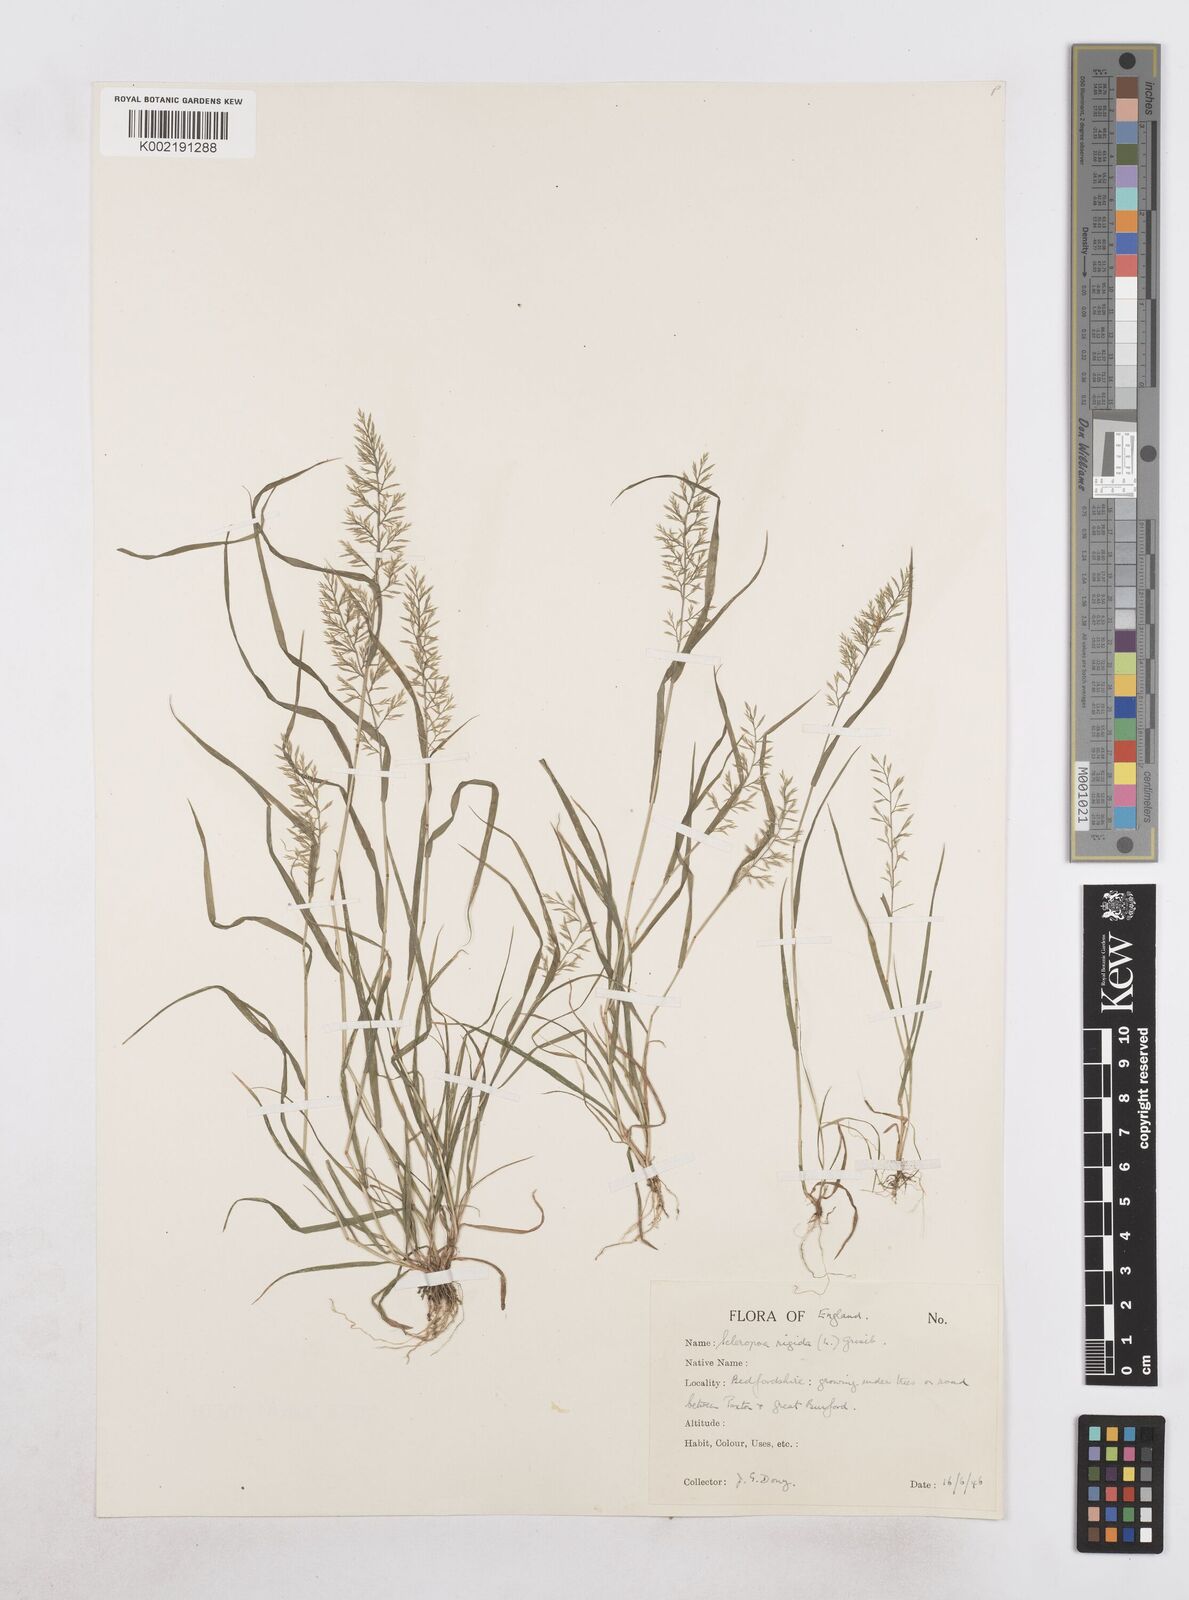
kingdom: Plantae
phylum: Tracheophyta
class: Liliopsida
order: Poales
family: Poaceae
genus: Catapodium
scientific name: Catapodium rigidum
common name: Fern-grass
